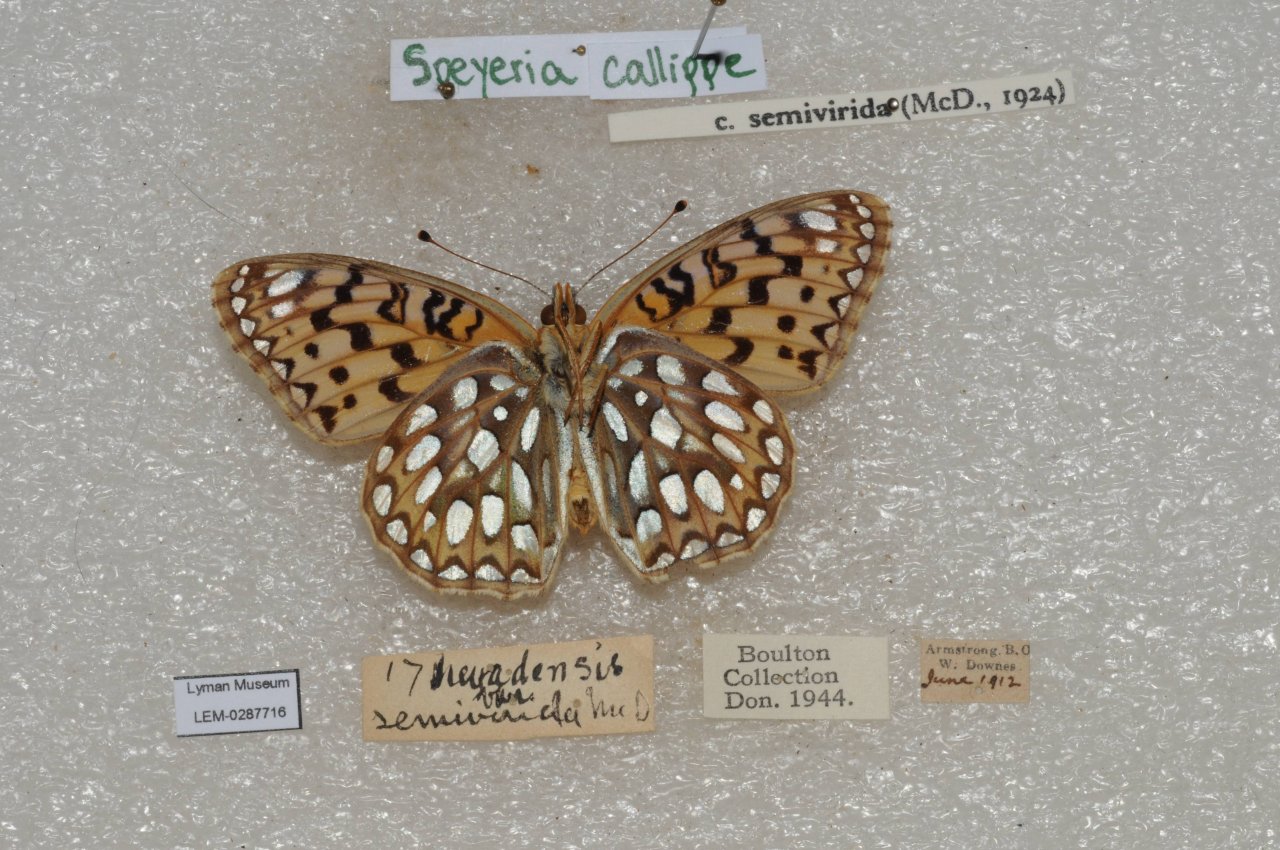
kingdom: Animalia
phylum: Arthropoda
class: Insecta
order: Lepidoptera
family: Nymphalidae
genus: Speyeria
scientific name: Speyeria callippe
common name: Callippe Fritillary
